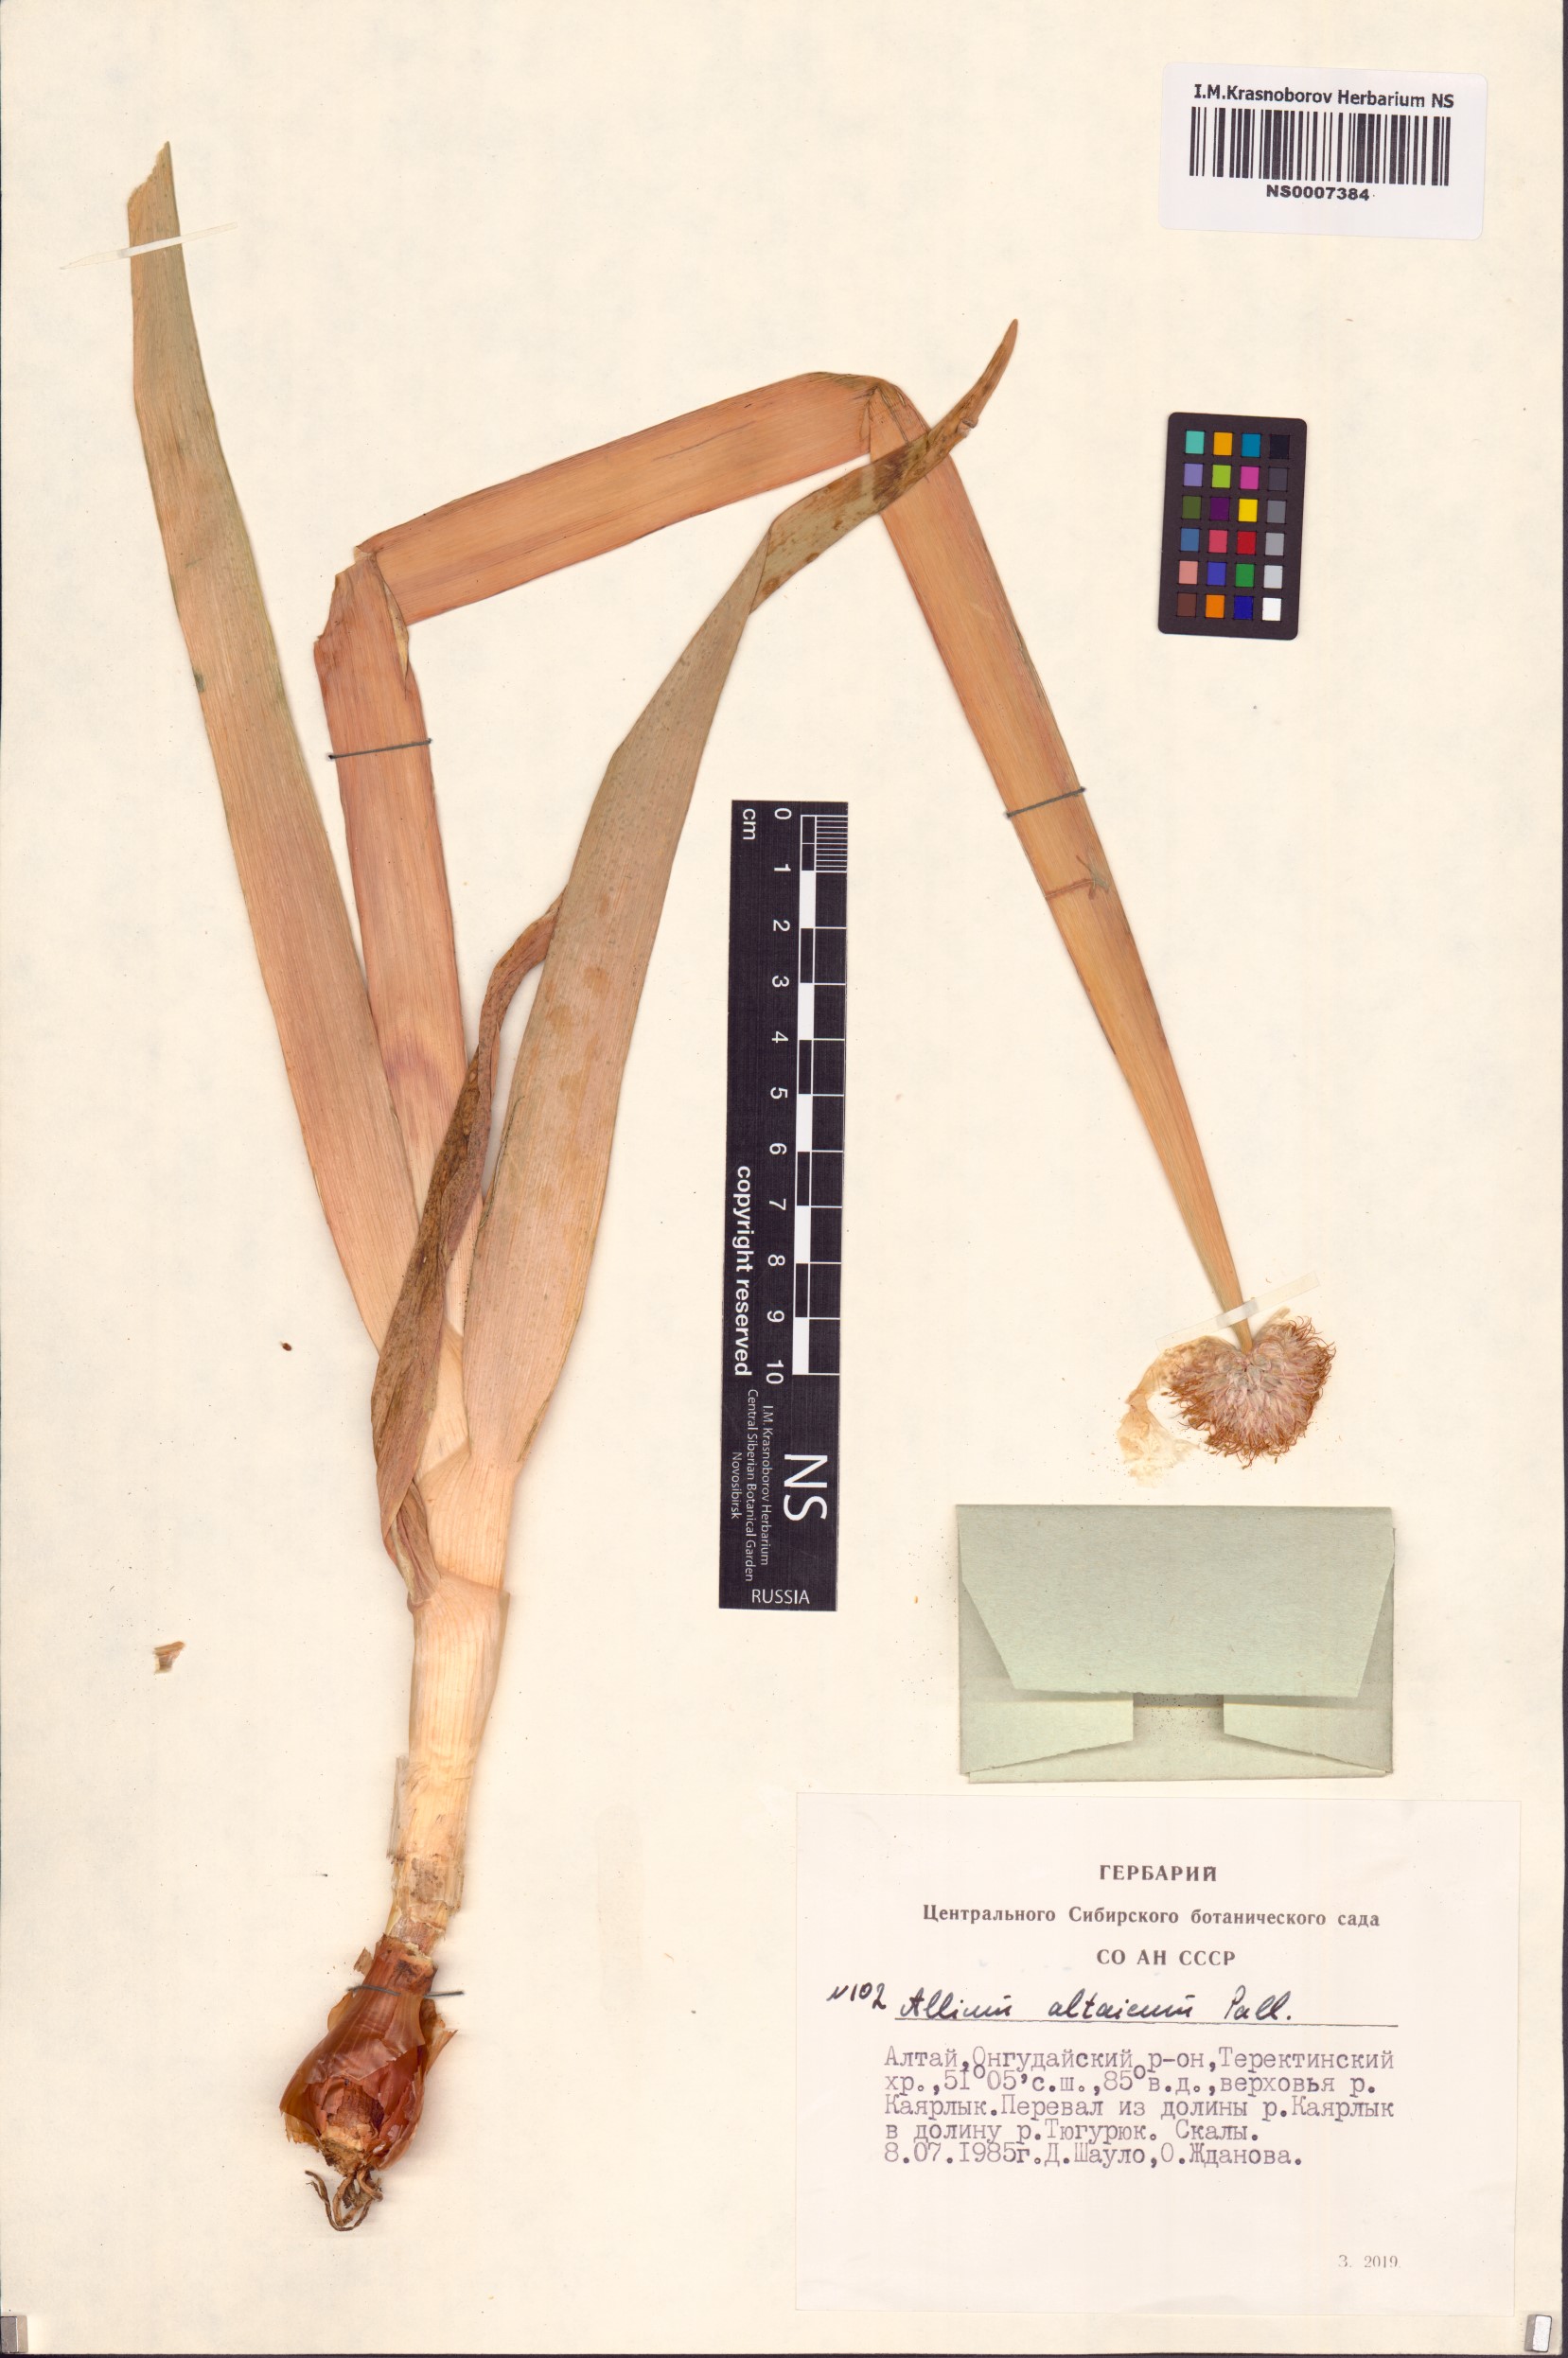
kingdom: Plantae
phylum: Tracheophyta
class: Liliopsida
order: Asparagales
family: Amaryllidaceae
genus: Allium
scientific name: Allium altaicum
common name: Altai onion
